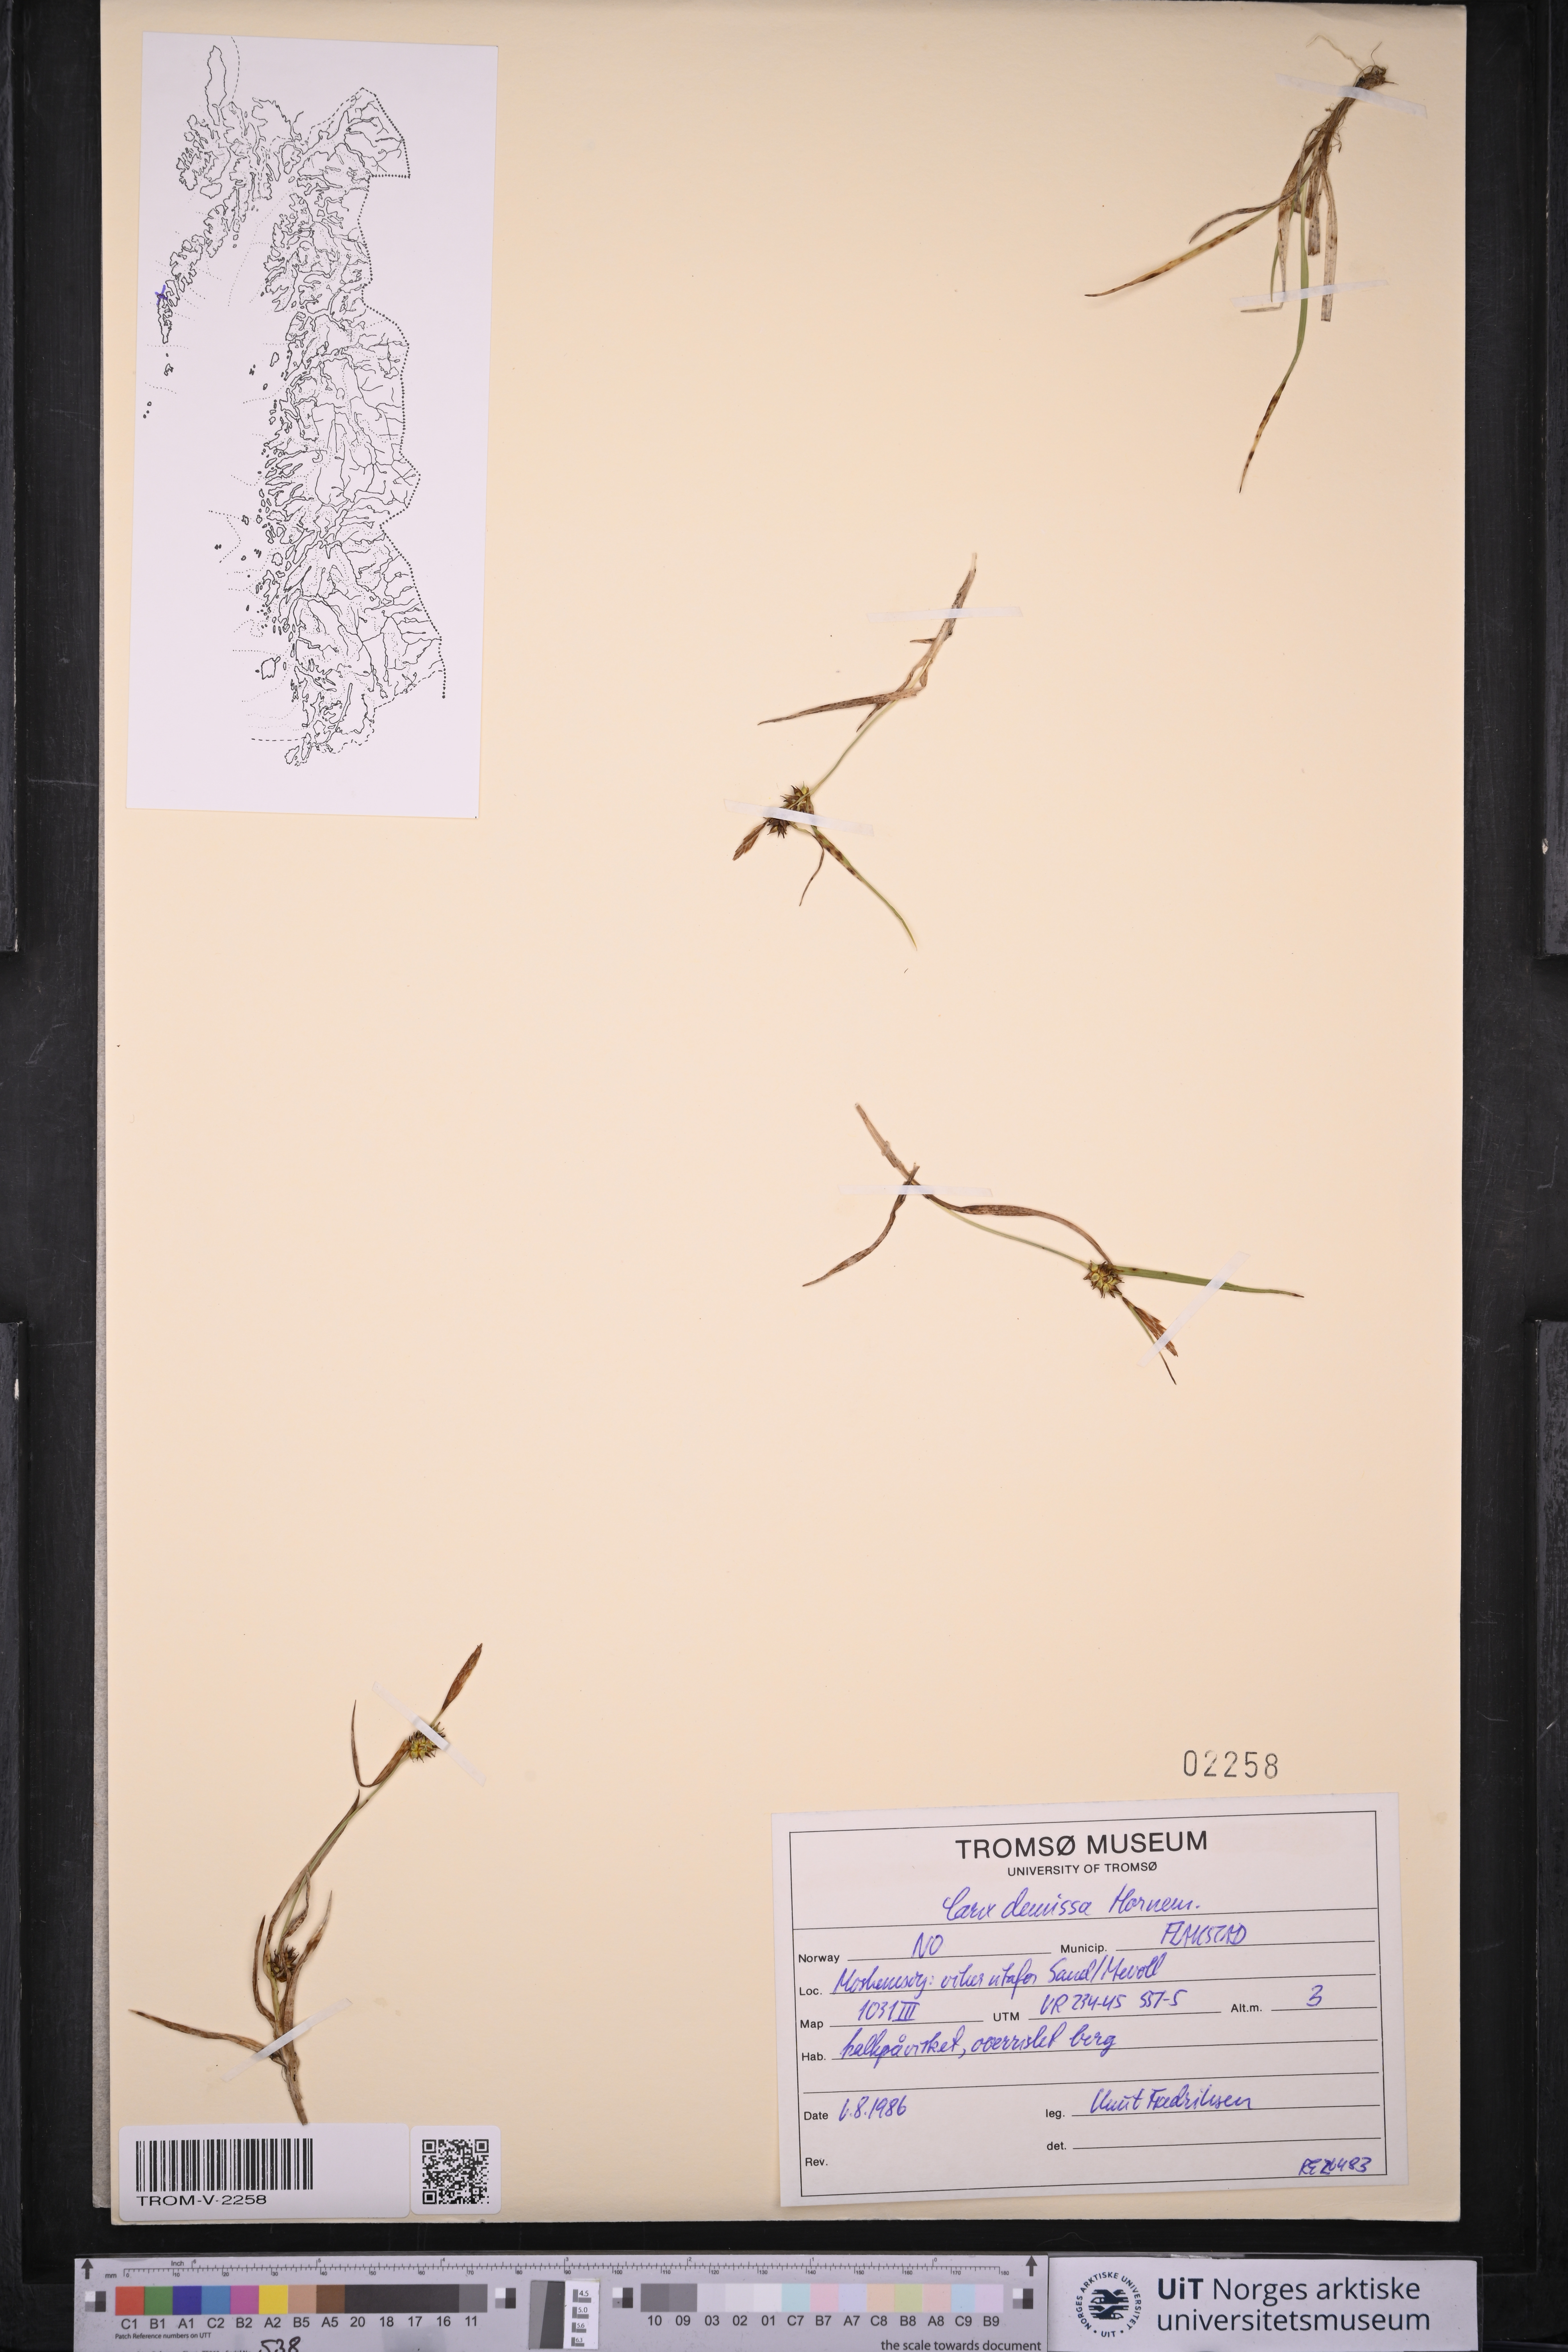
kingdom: Plantae
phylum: Tracheophyta
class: Liliopsida
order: Poales
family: Cyperaceae
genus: Carex
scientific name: Carex demissa
